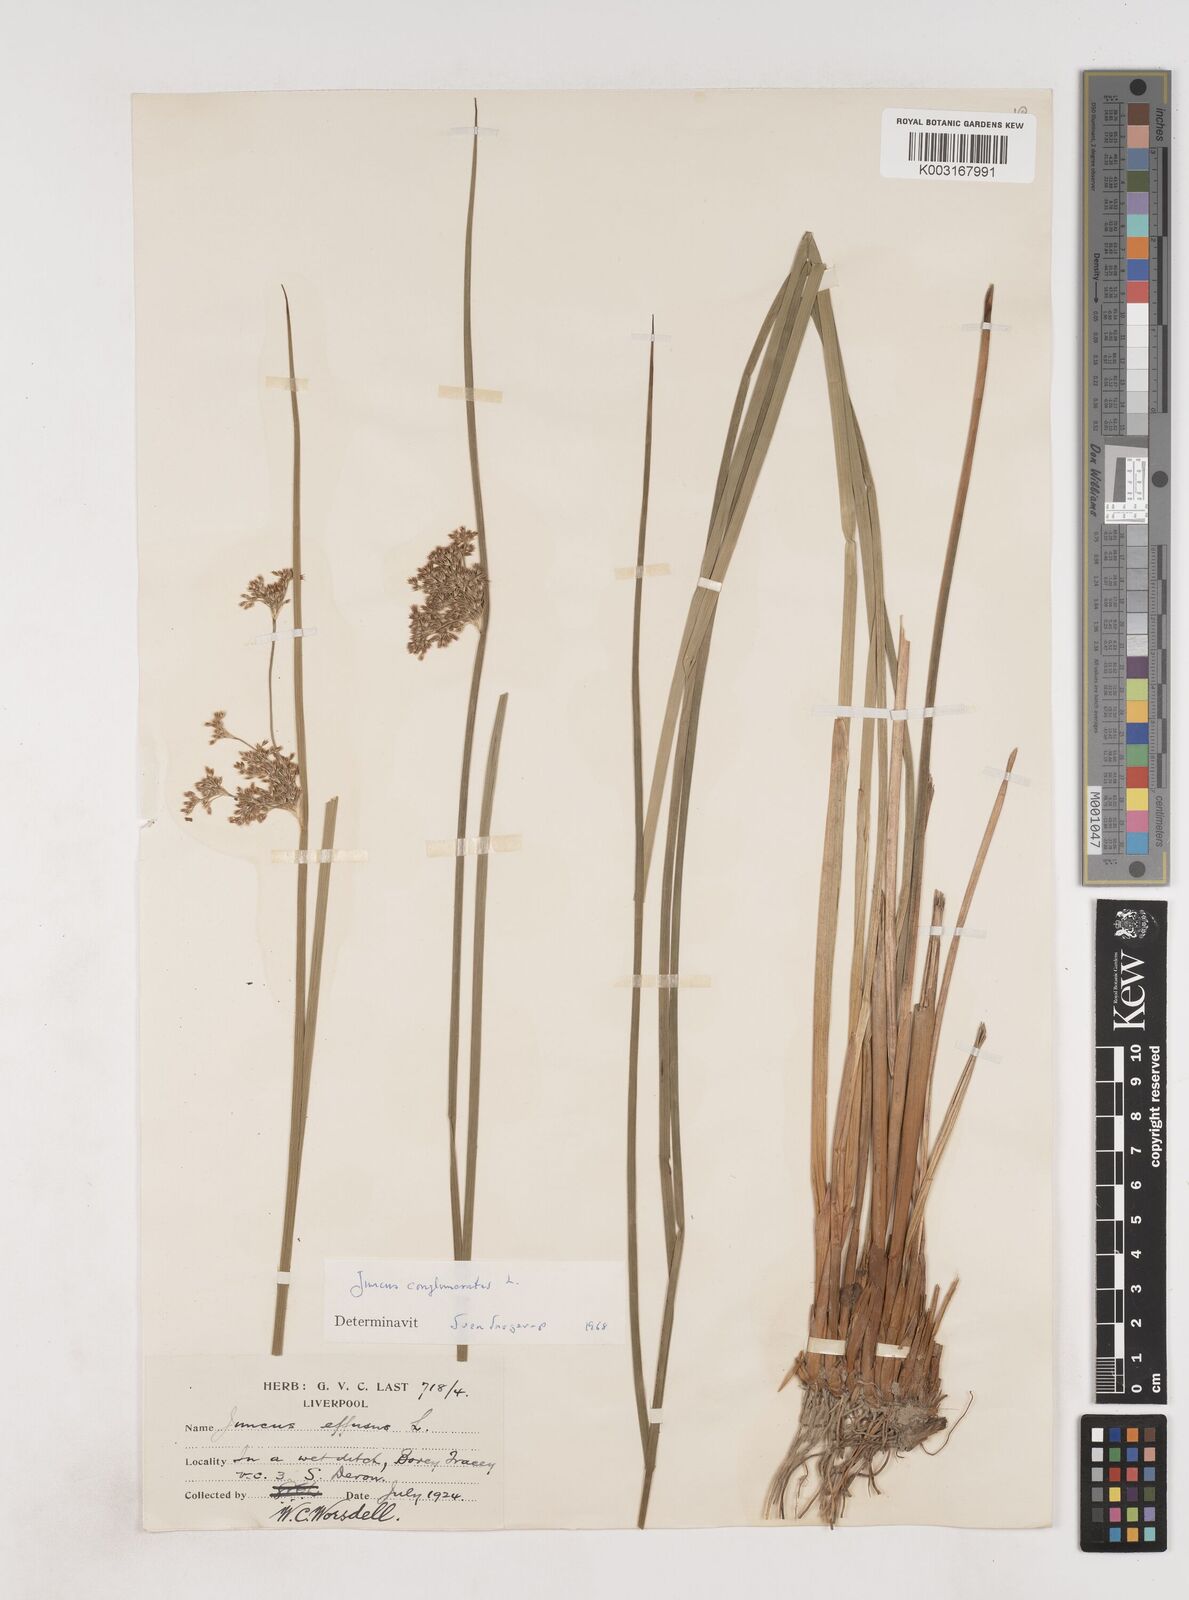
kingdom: Plantae
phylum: Tracheophyta
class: Liliopsida
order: Poales
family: Juncaceae
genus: Juncus
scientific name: Juncus conglomeratus
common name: Compact rush
